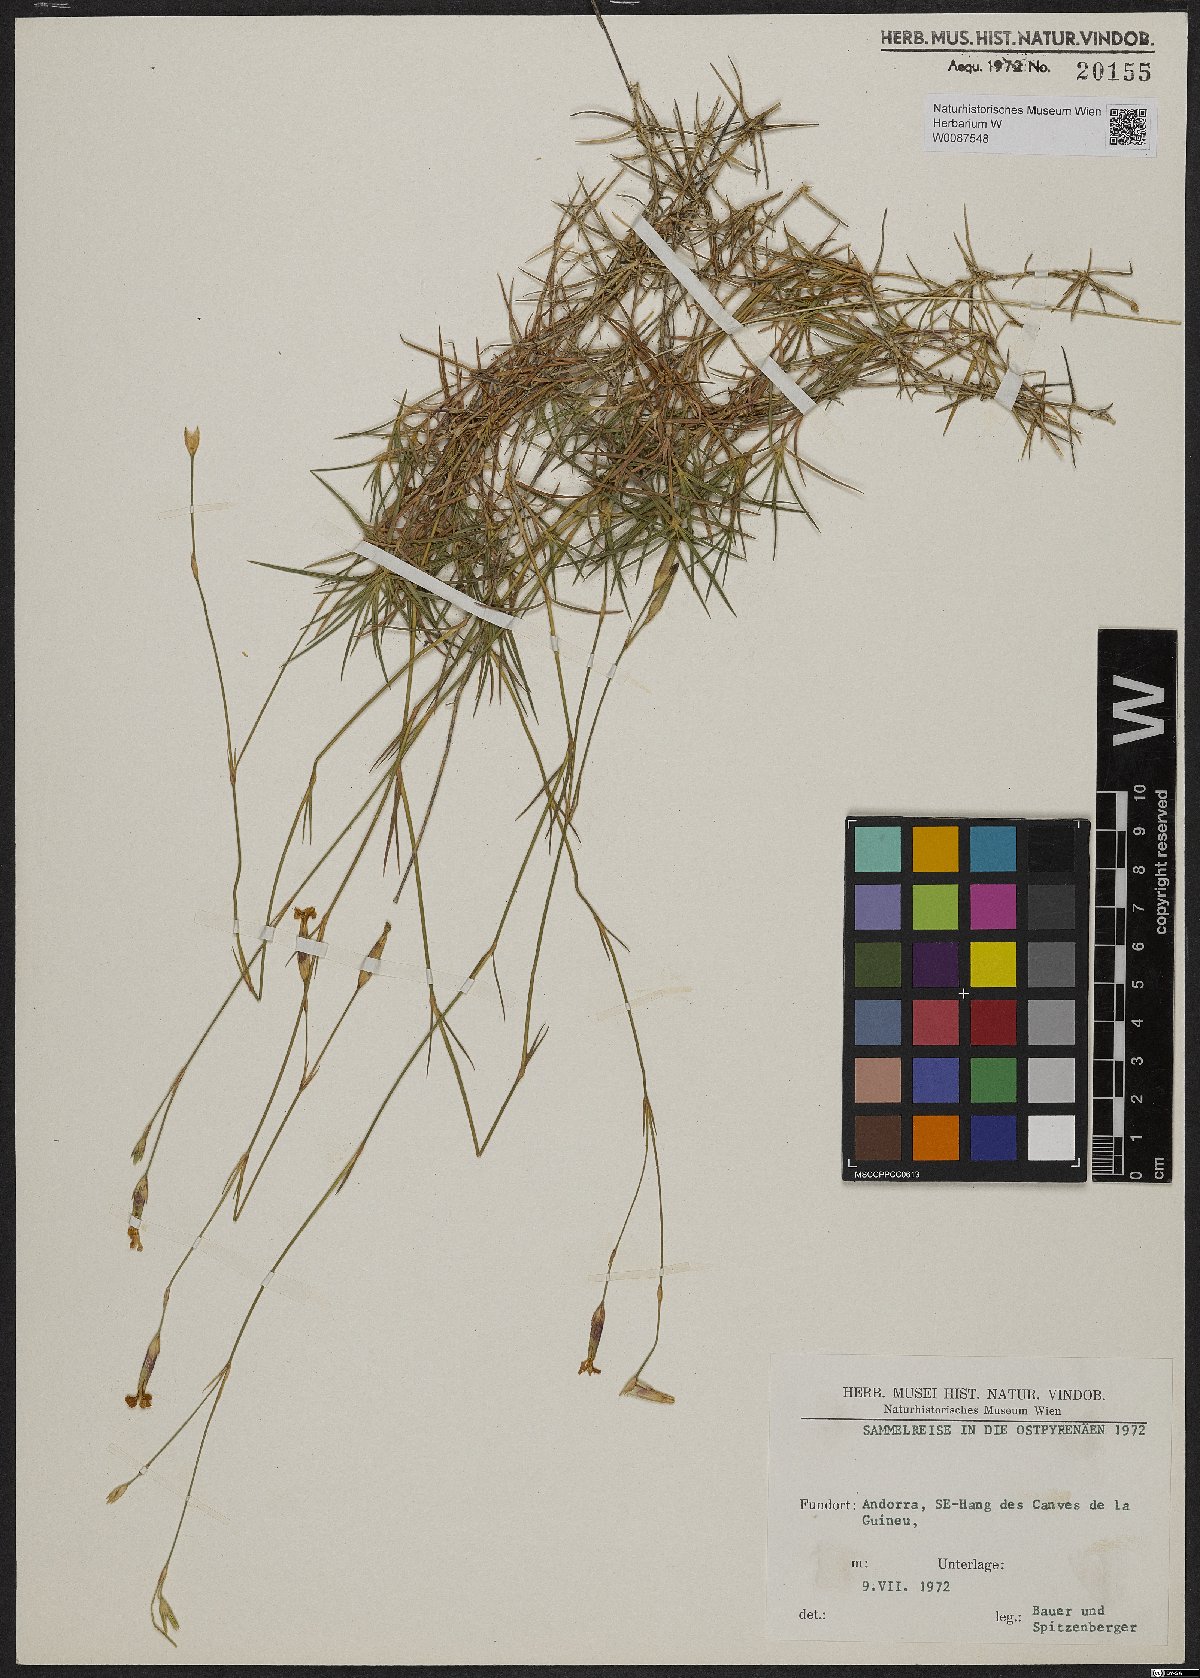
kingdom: Plantae
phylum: Tracheophyta
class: Magnoliopsida
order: Caryophyllales
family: Caryophyllaceae
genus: Dianthus
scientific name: Dianthus
